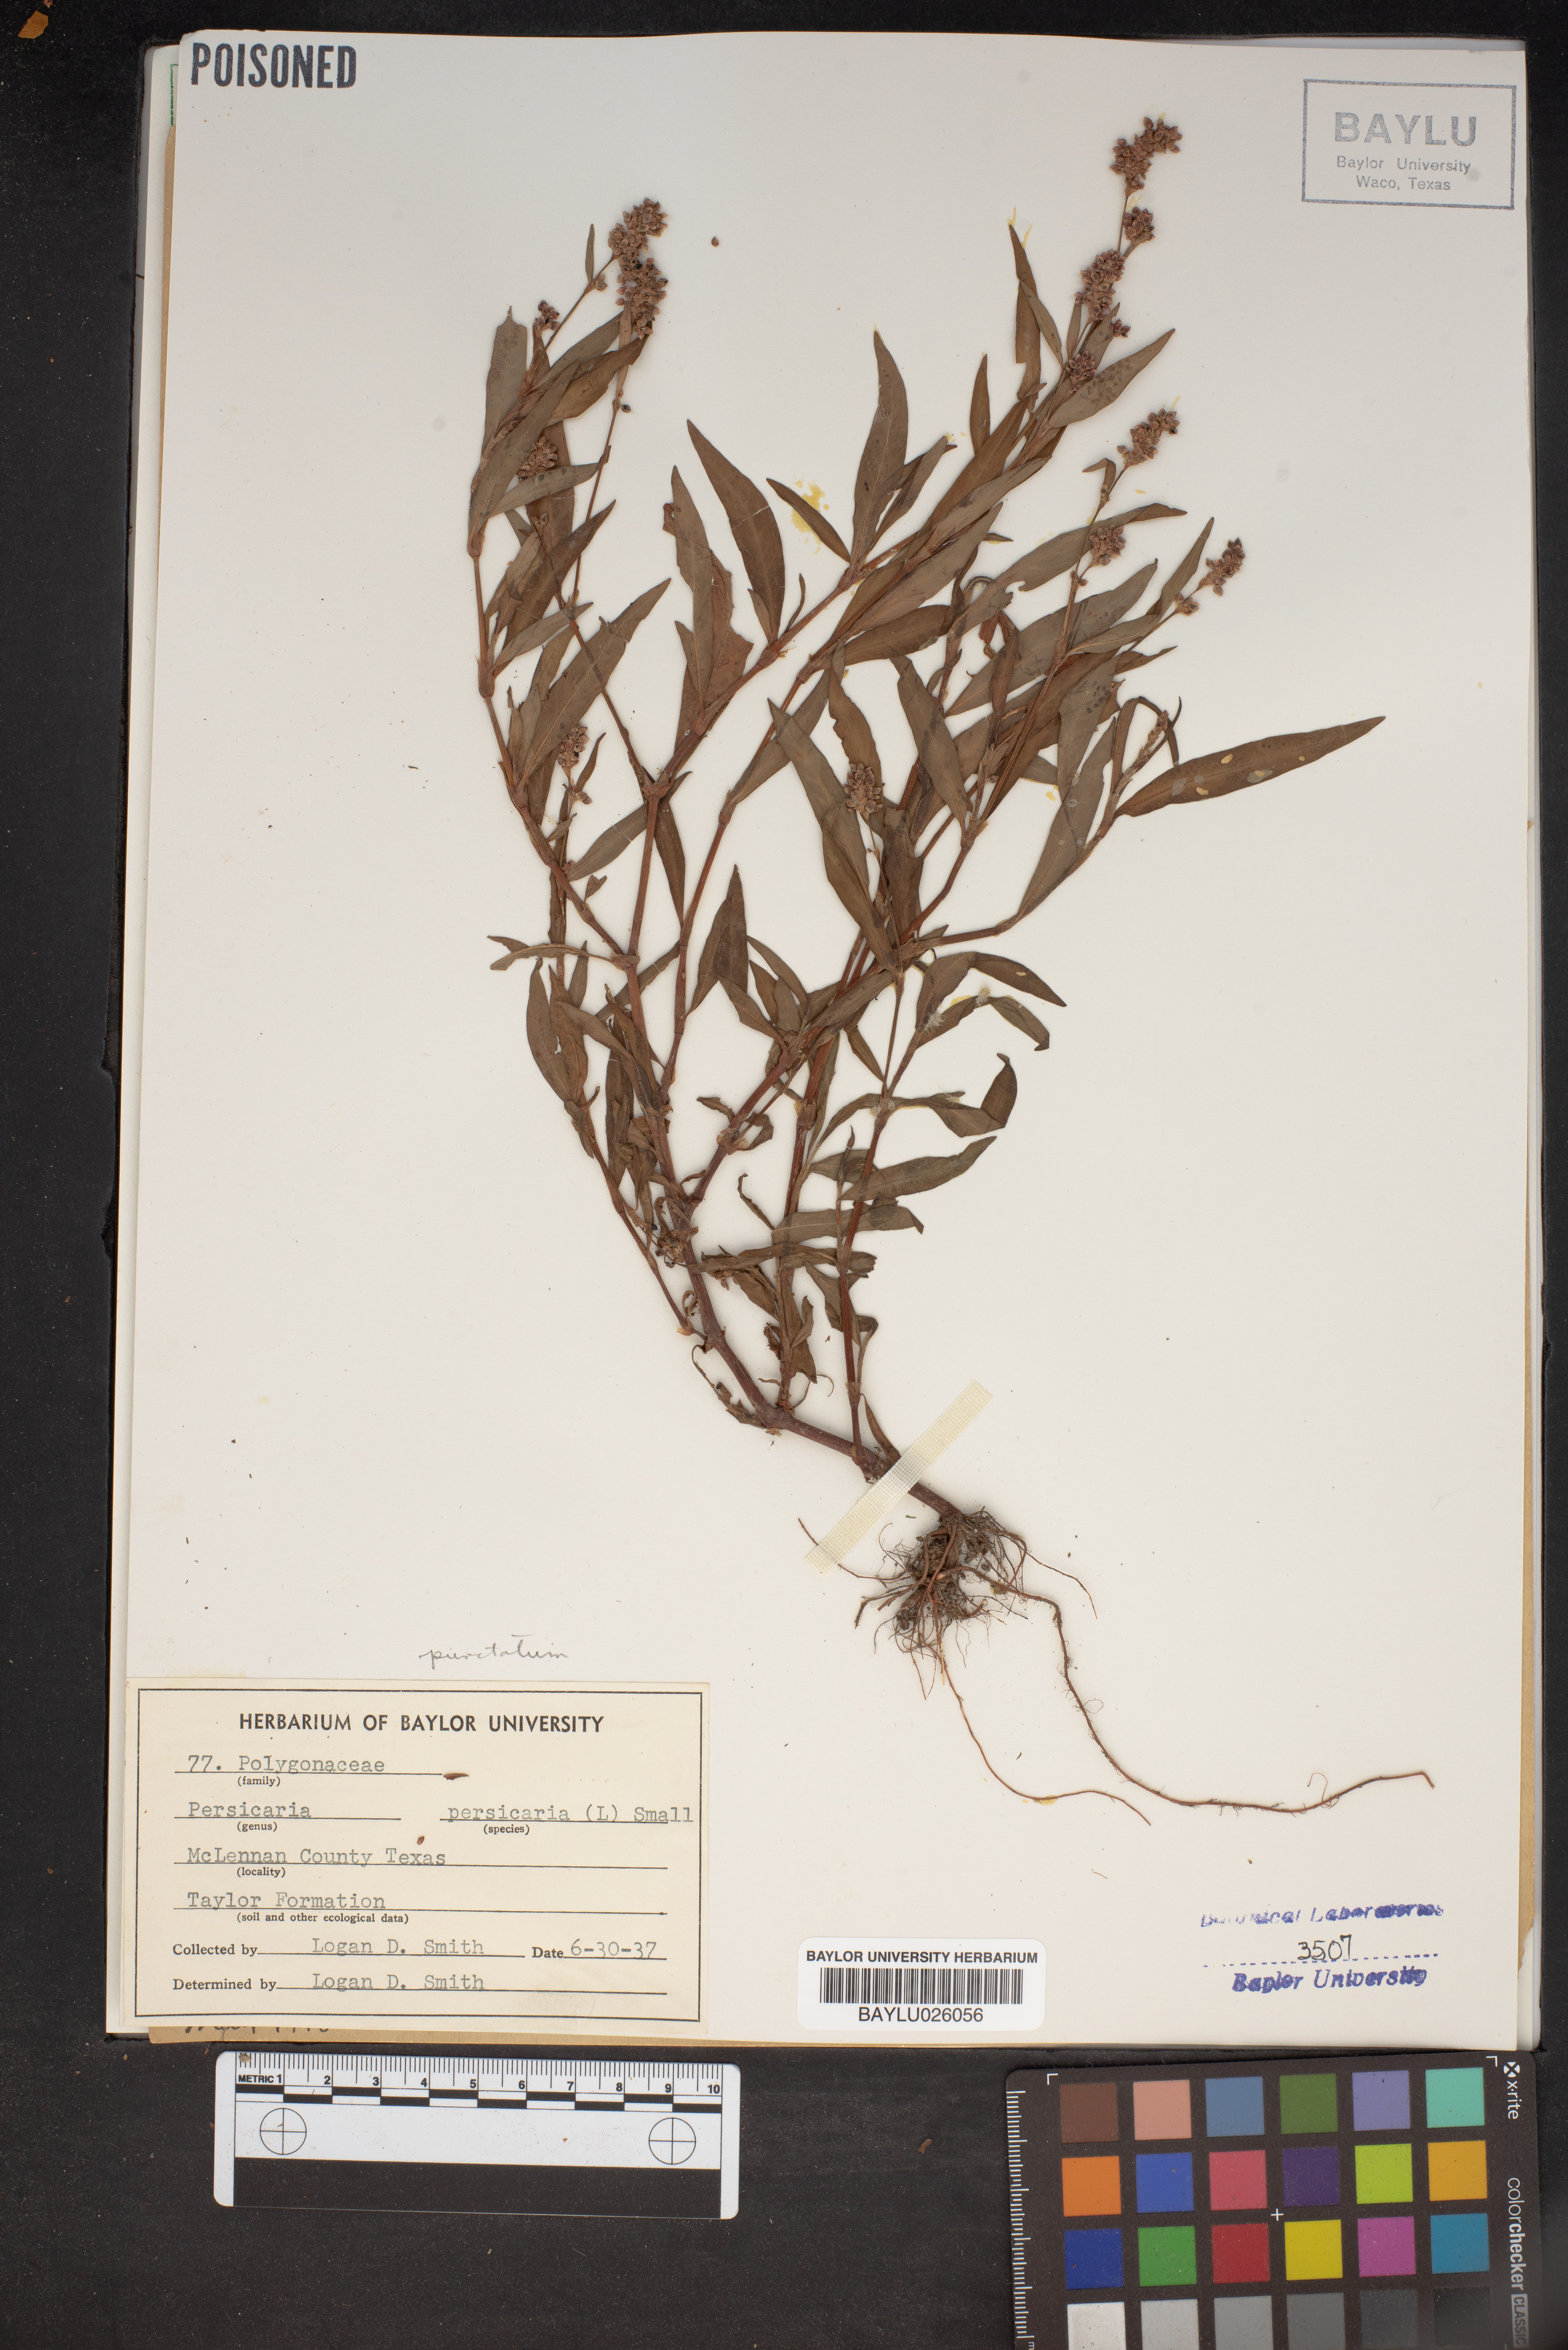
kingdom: Plantae
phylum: Tracheophyta
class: Magnoliopsida
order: Caryophyllales
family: Polygonaceae
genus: Persicaria
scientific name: Persicaria maculosa
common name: Redshank
